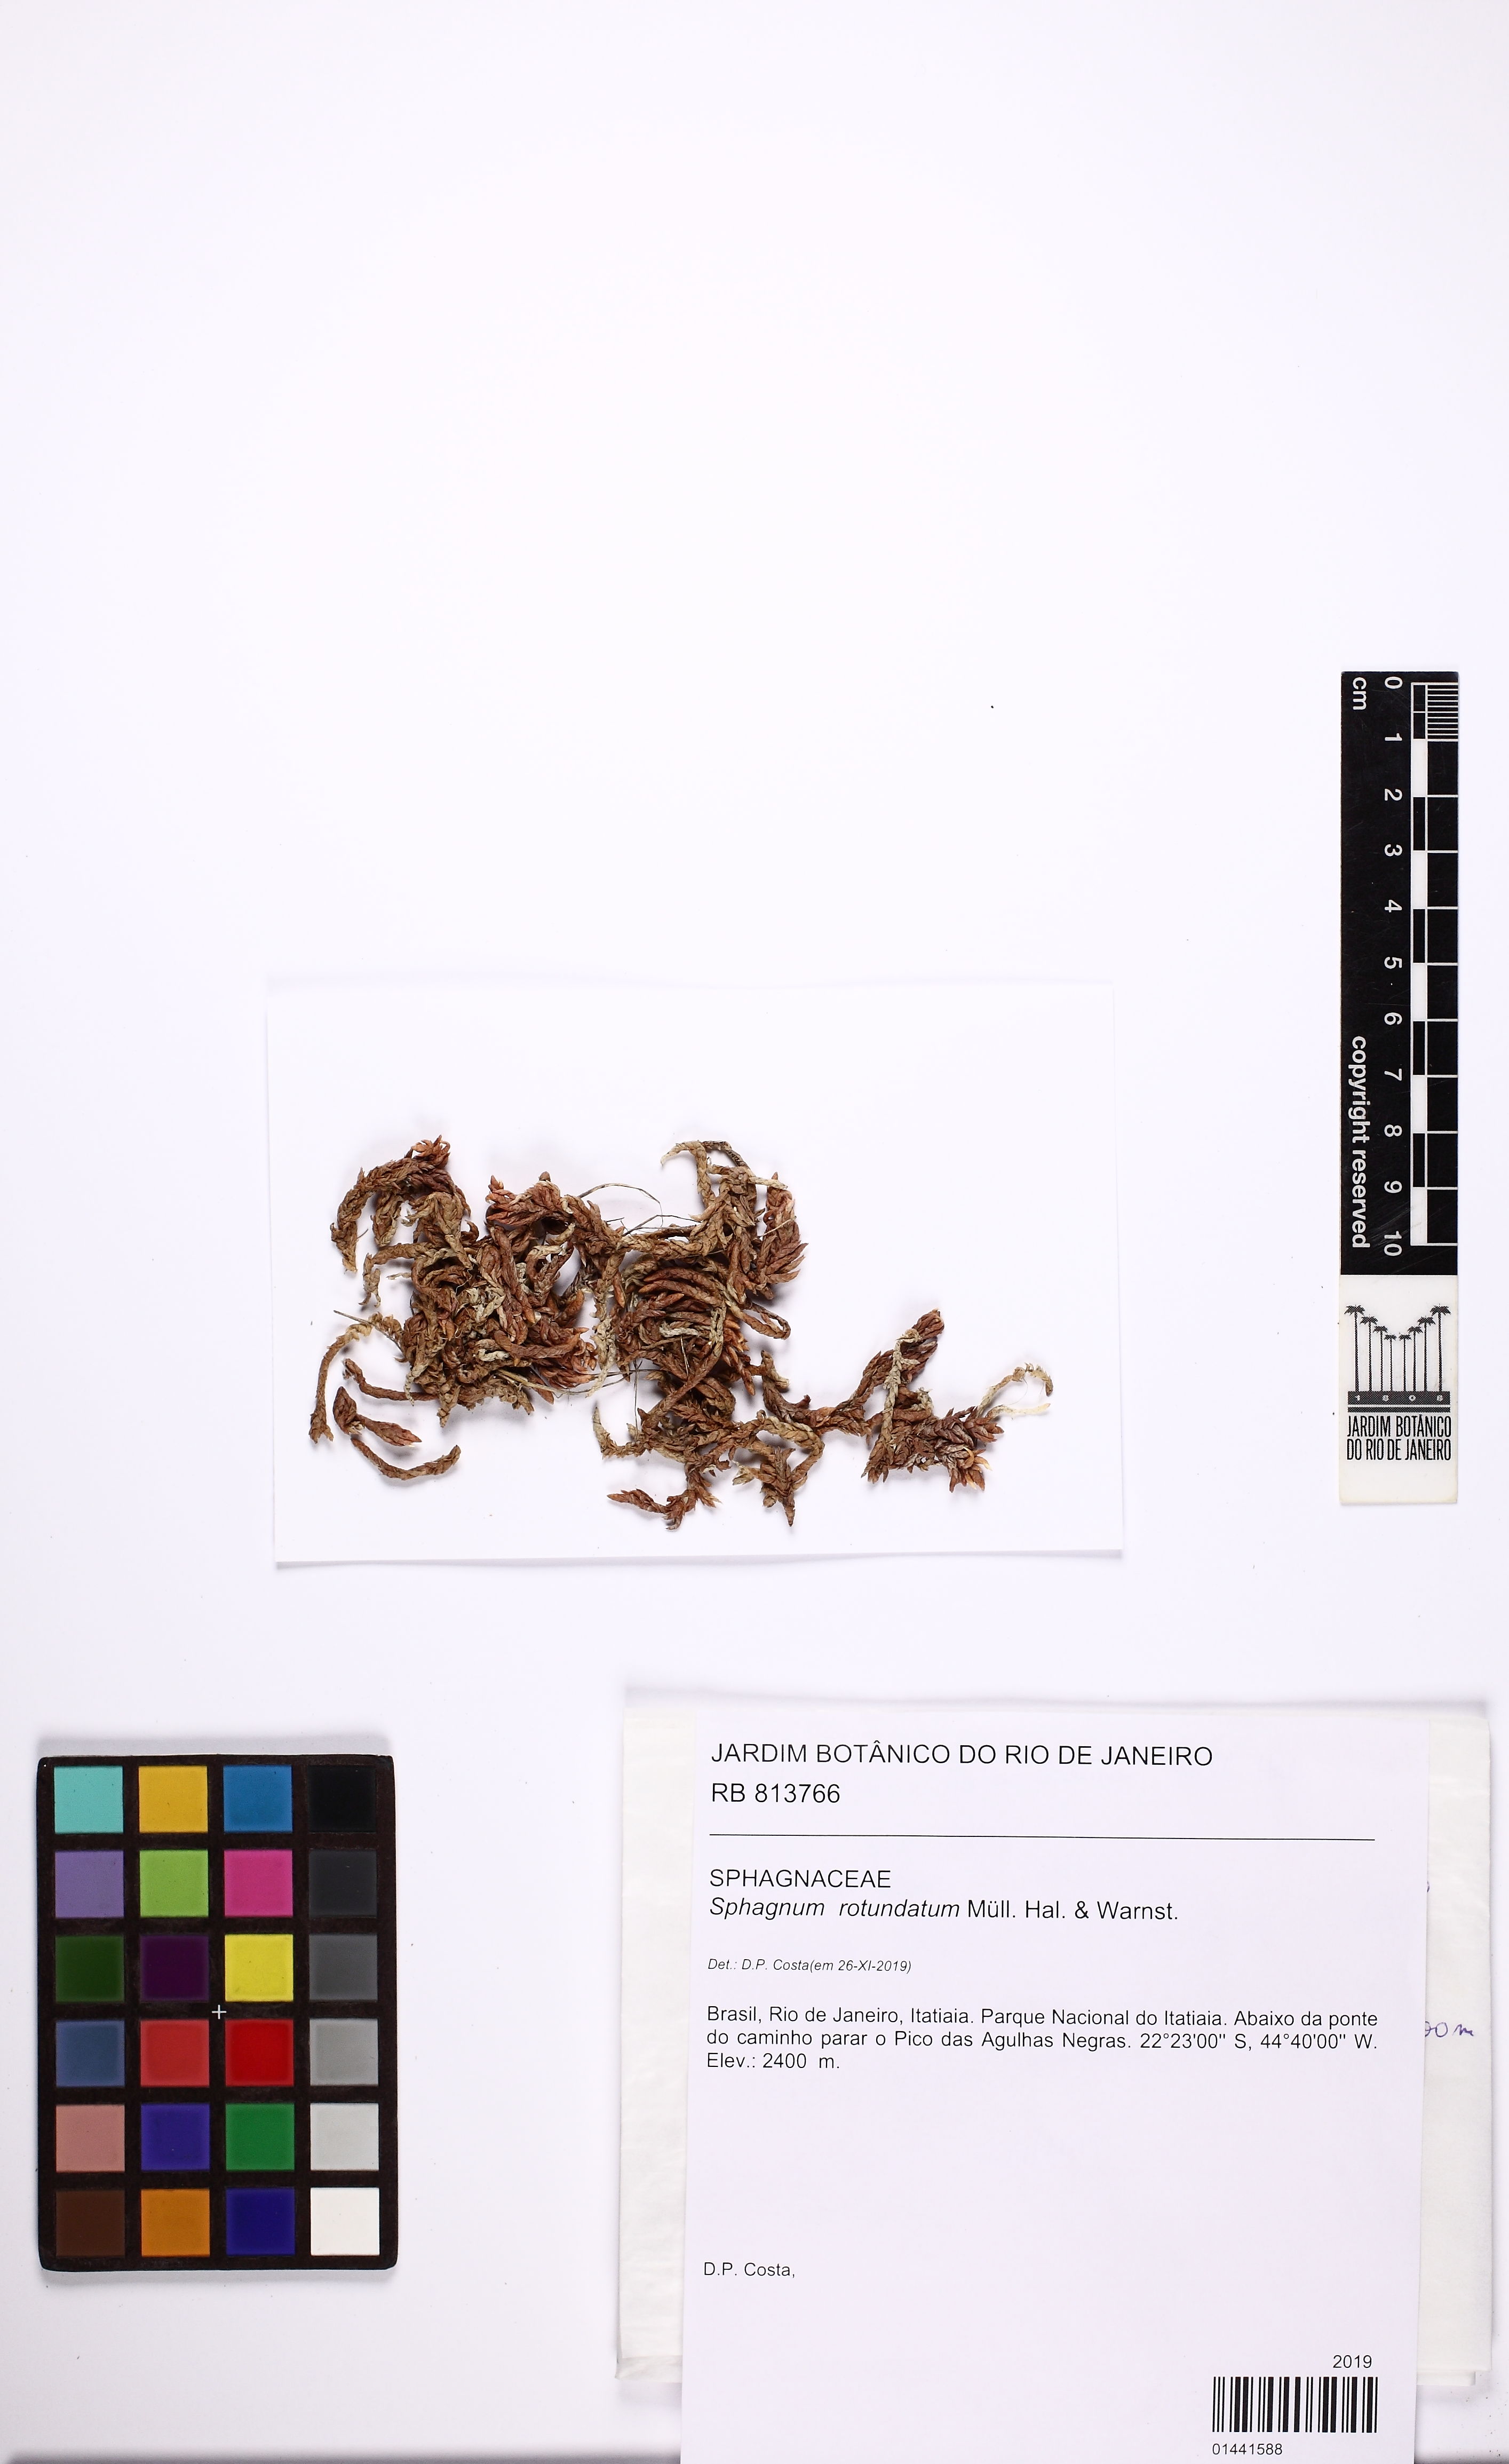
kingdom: Plantae
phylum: Bryophyta
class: Sphagnopsida
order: Sphagnales
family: Sphagnaceae
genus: Sphagnum
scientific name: Sphagnum rotundatum
